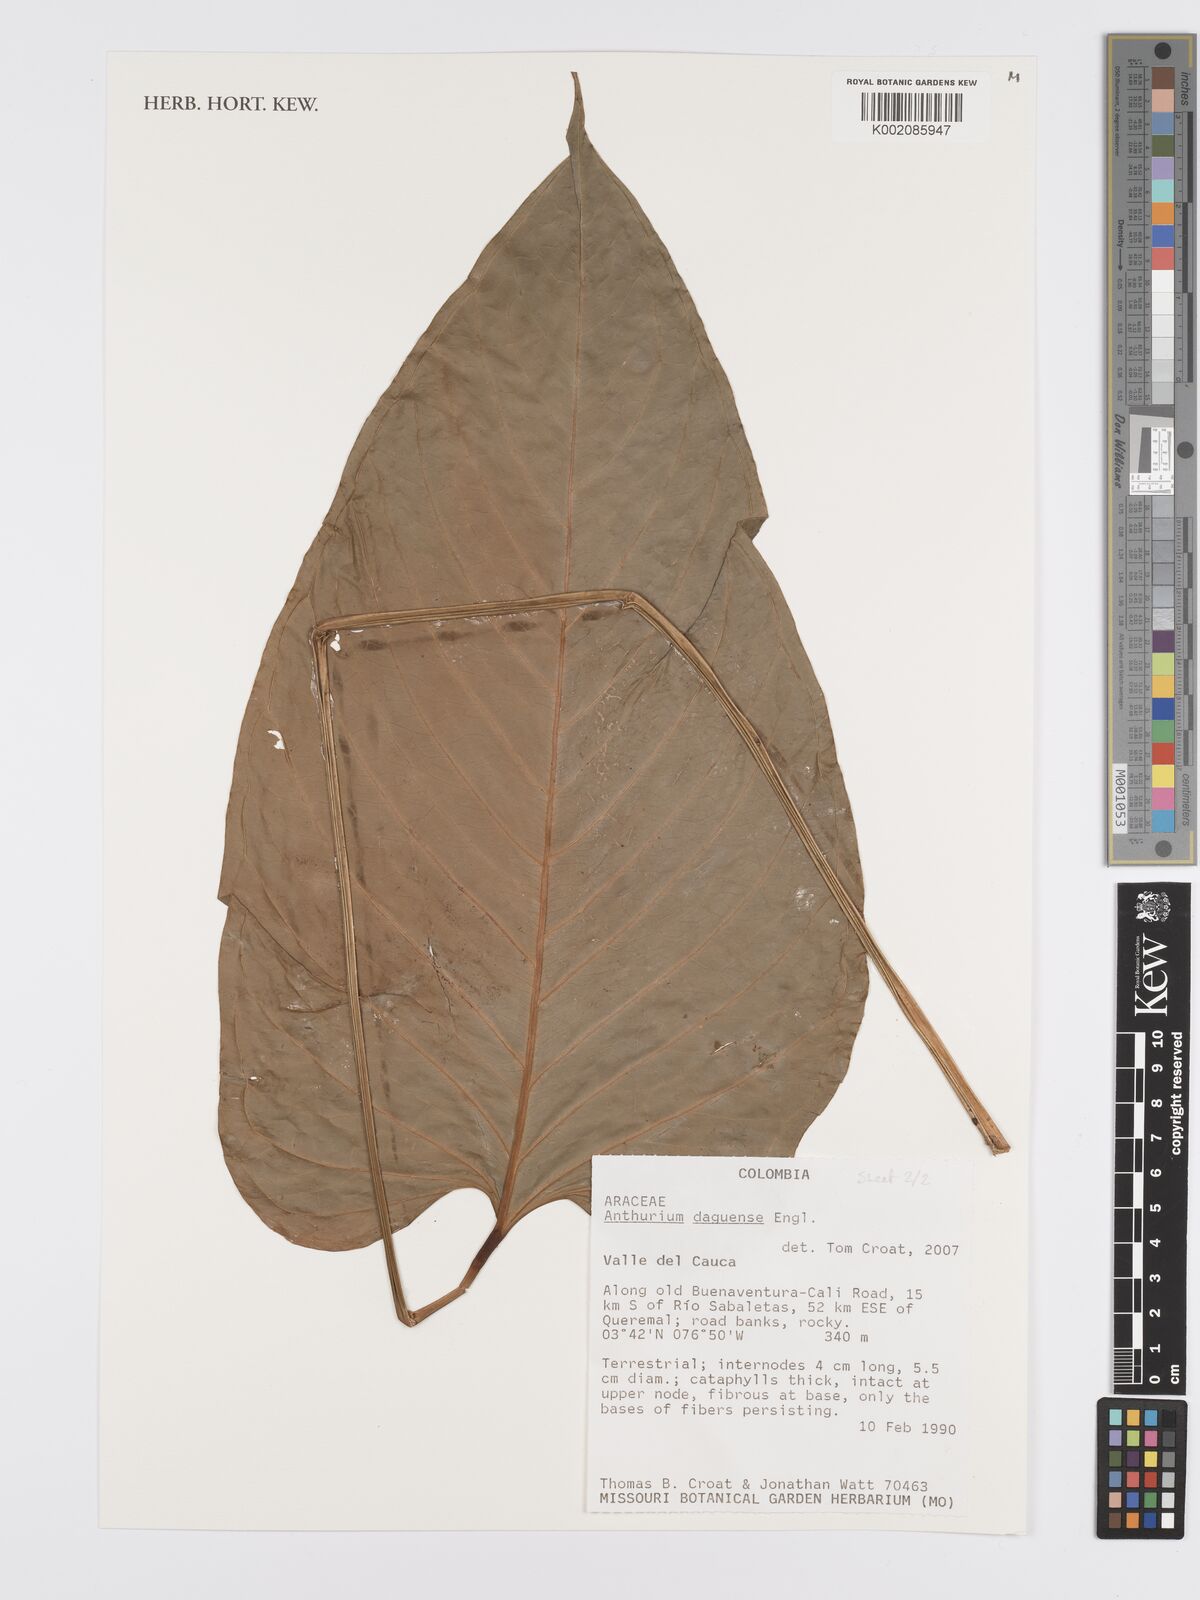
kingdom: Plantae
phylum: Tracheophyta
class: Liliopsida
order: Alismatales
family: Araceae
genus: Anthurium
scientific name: Anthurium daguense
